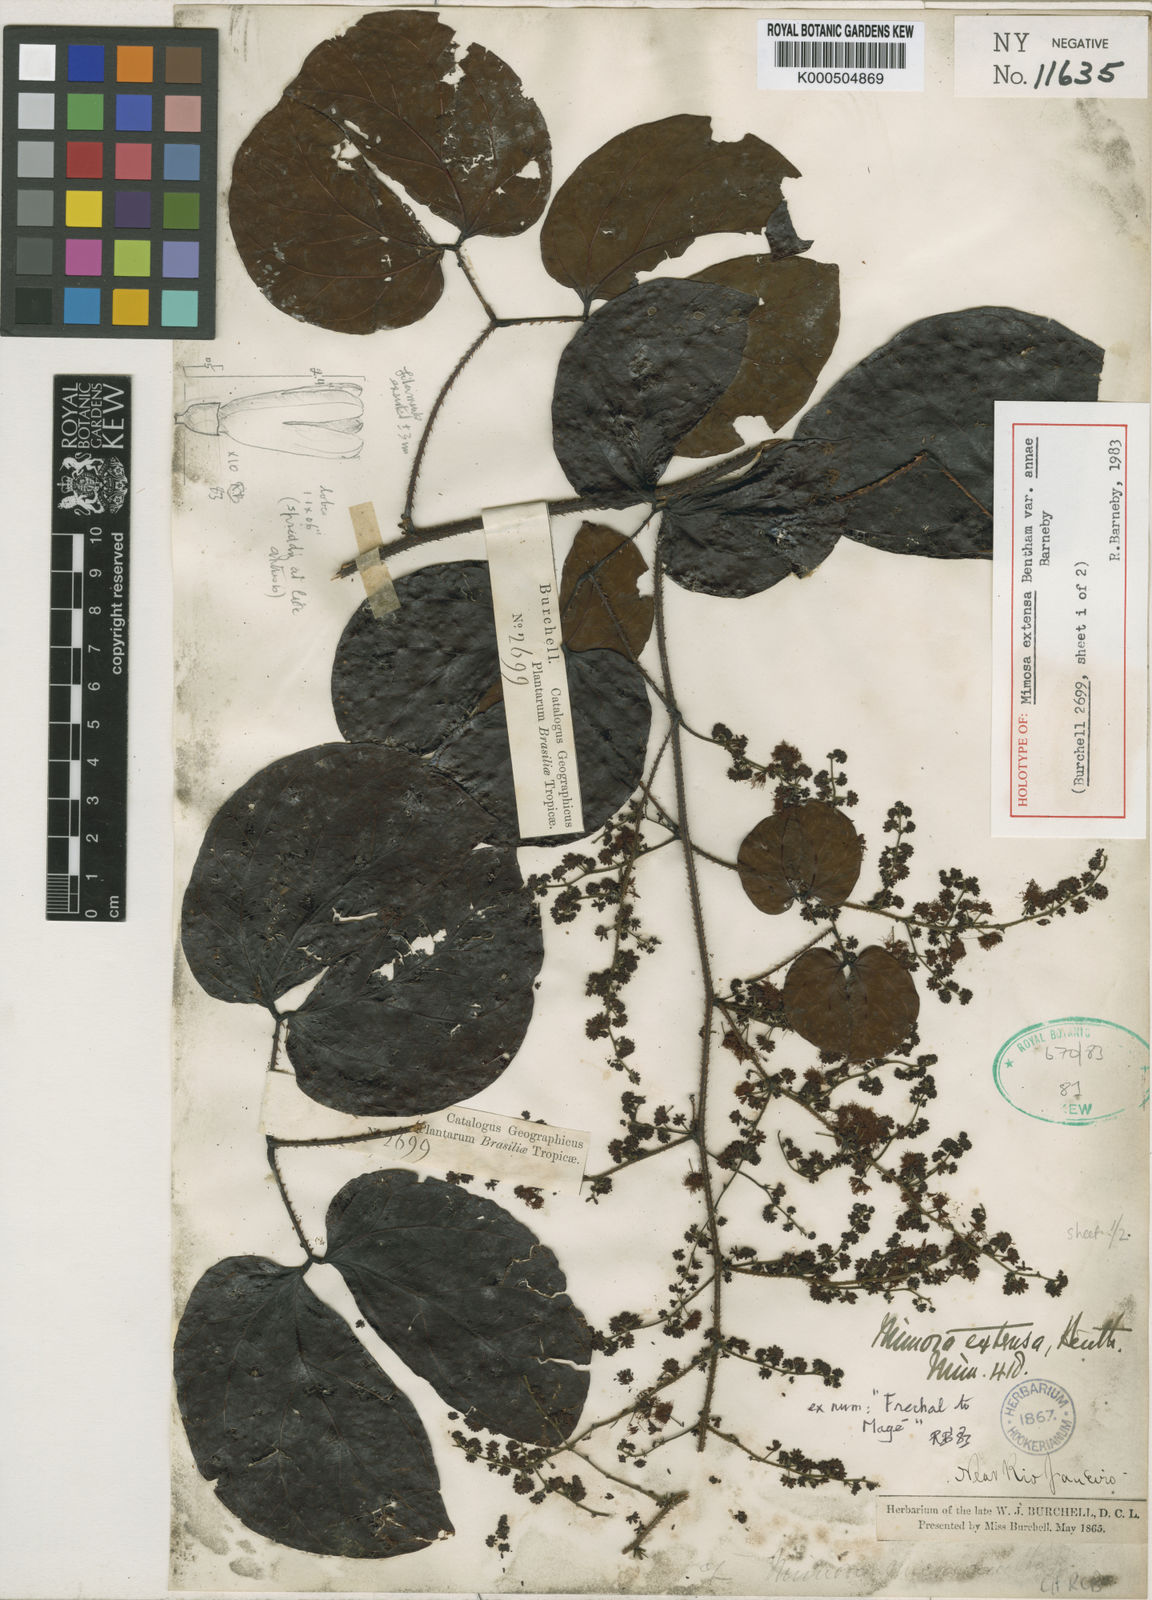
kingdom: Plantae
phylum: Tracheophyta
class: Magnoliopsida
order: Fabales
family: Fabaceae
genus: Mimosa
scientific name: Mimosa extensa
